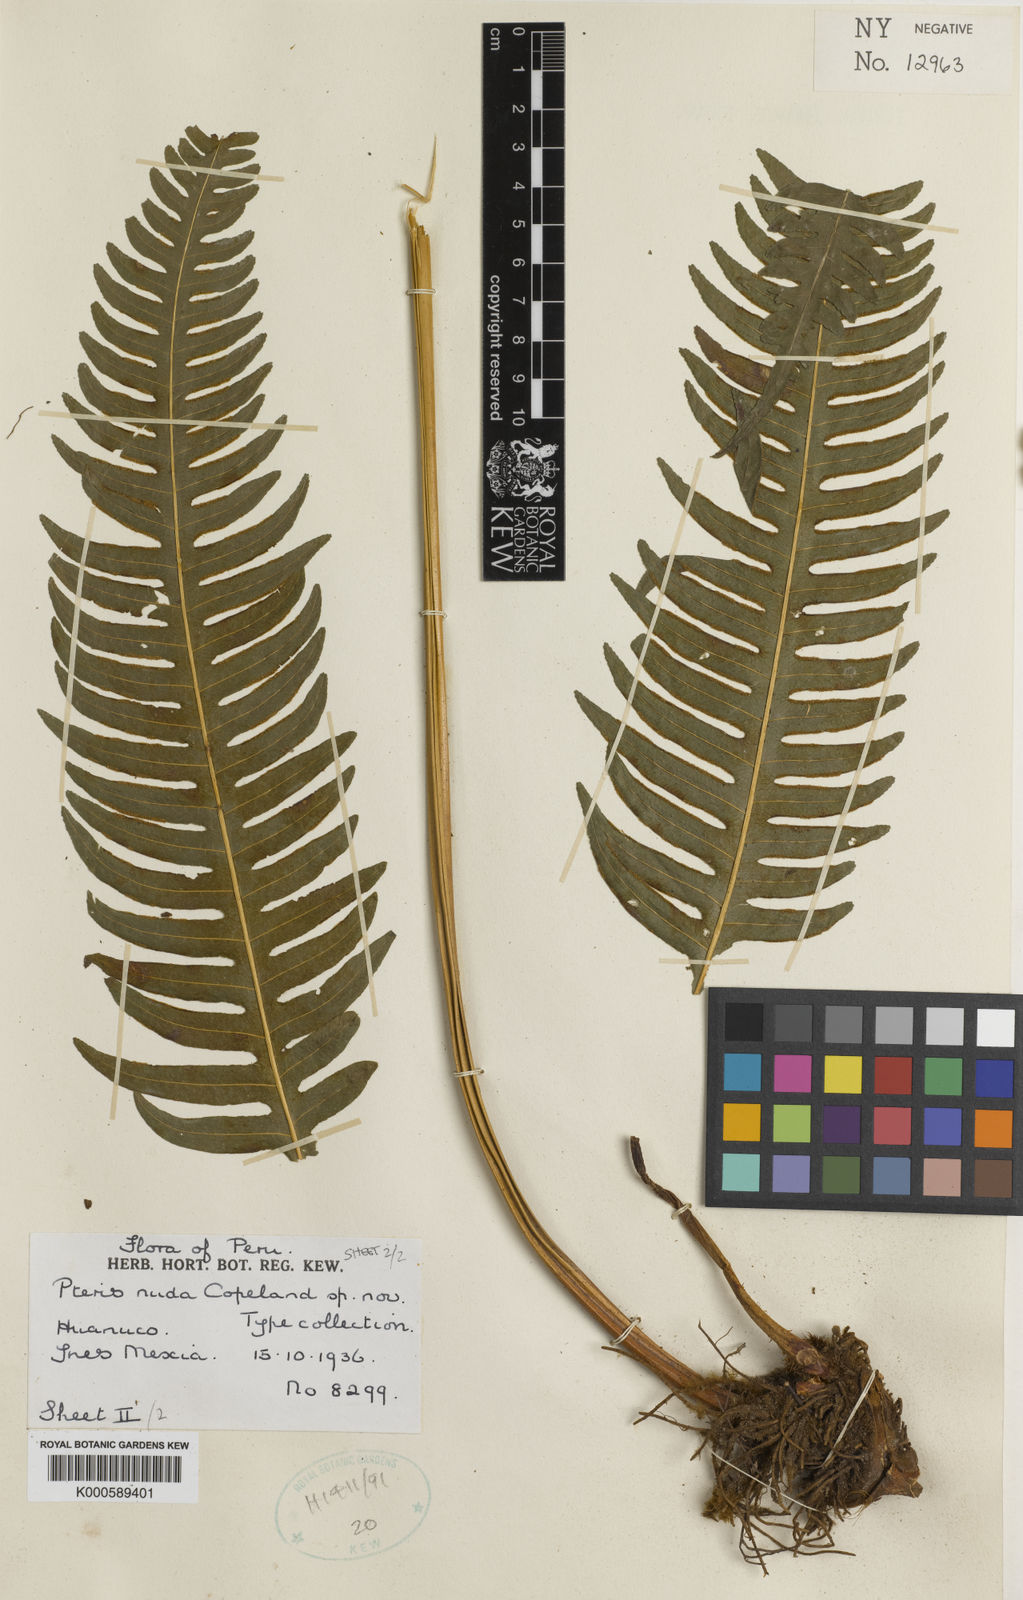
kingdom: Plantae
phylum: Tracheophyta
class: Polypodiopsida
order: Polypodiales
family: Pteridaceae
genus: Pteris
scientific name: Pteris transparens
